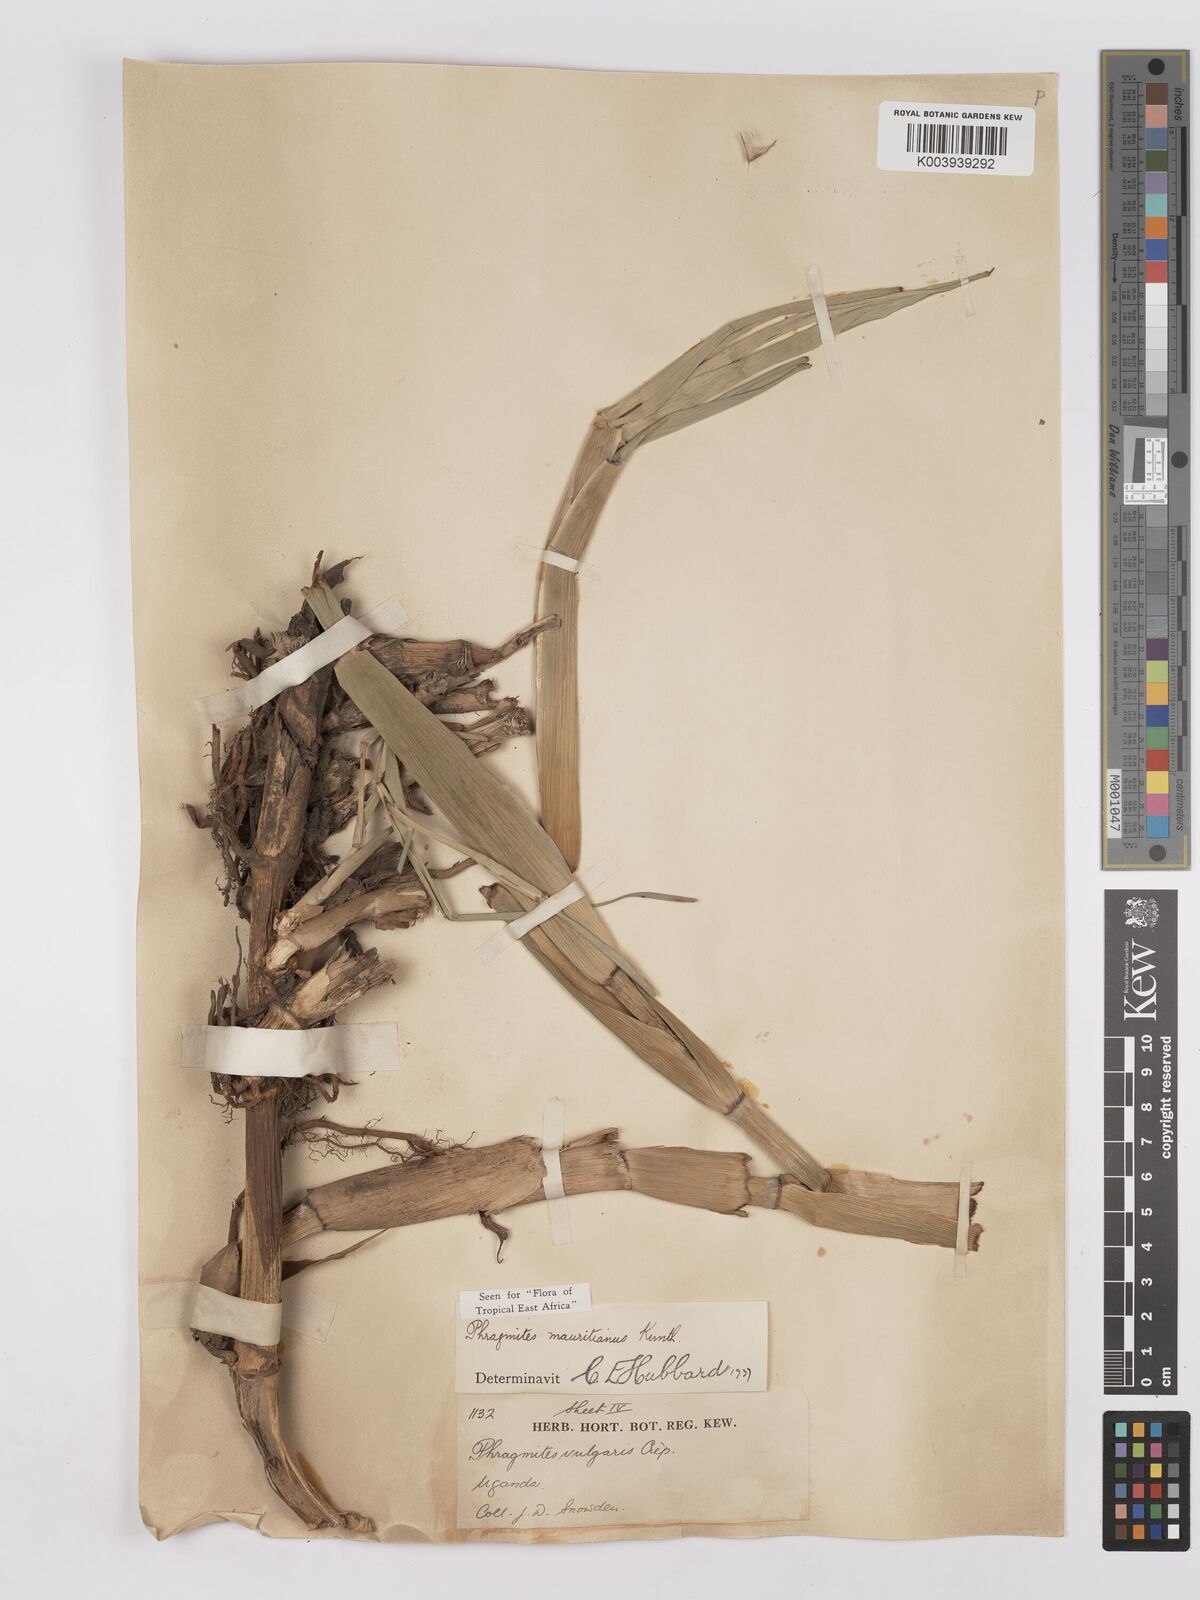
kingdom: Plantae
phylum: Tracheophyta
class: Liliopsida
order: Poales
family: Poaceae
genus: Phragmites
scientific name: Phragmites mauritianus
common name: Reed grass
